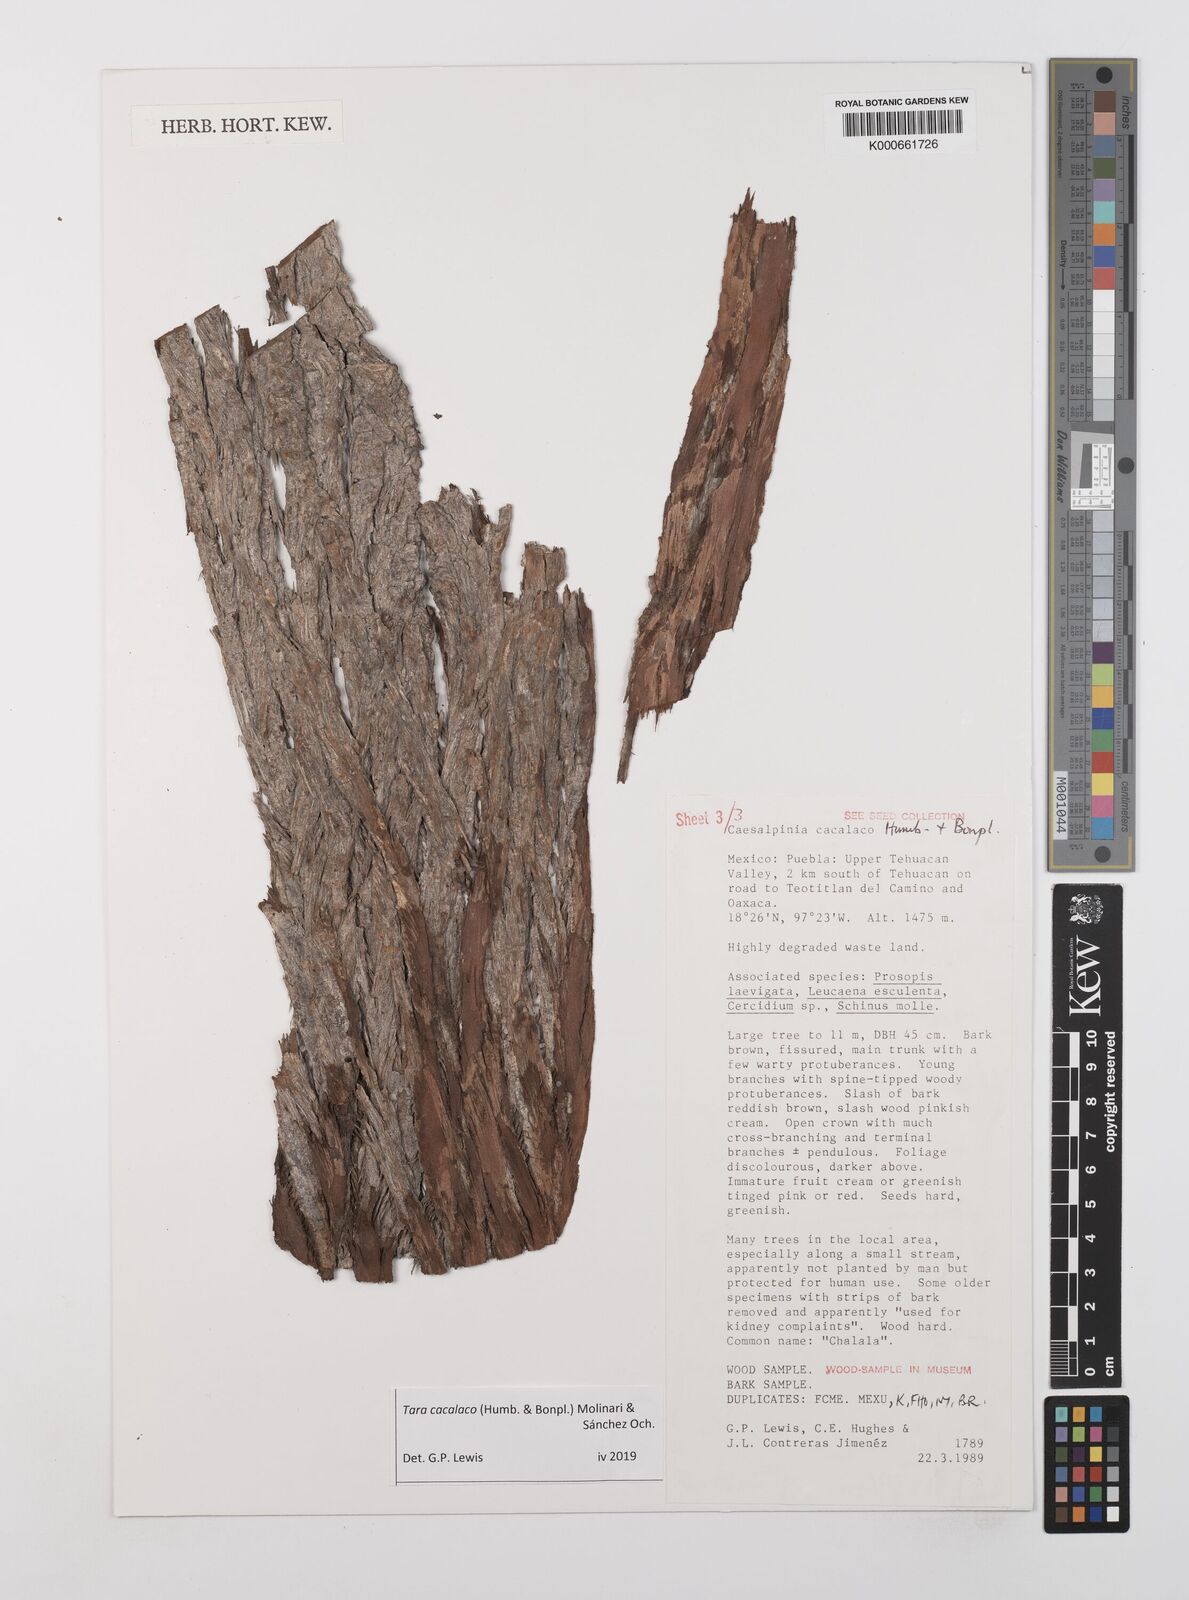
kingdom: Plantae
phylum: Tracheophyta
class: Magnoliopsida
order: Fabales
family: Fabaceae
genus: Tara
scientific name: Tara cacalaco
